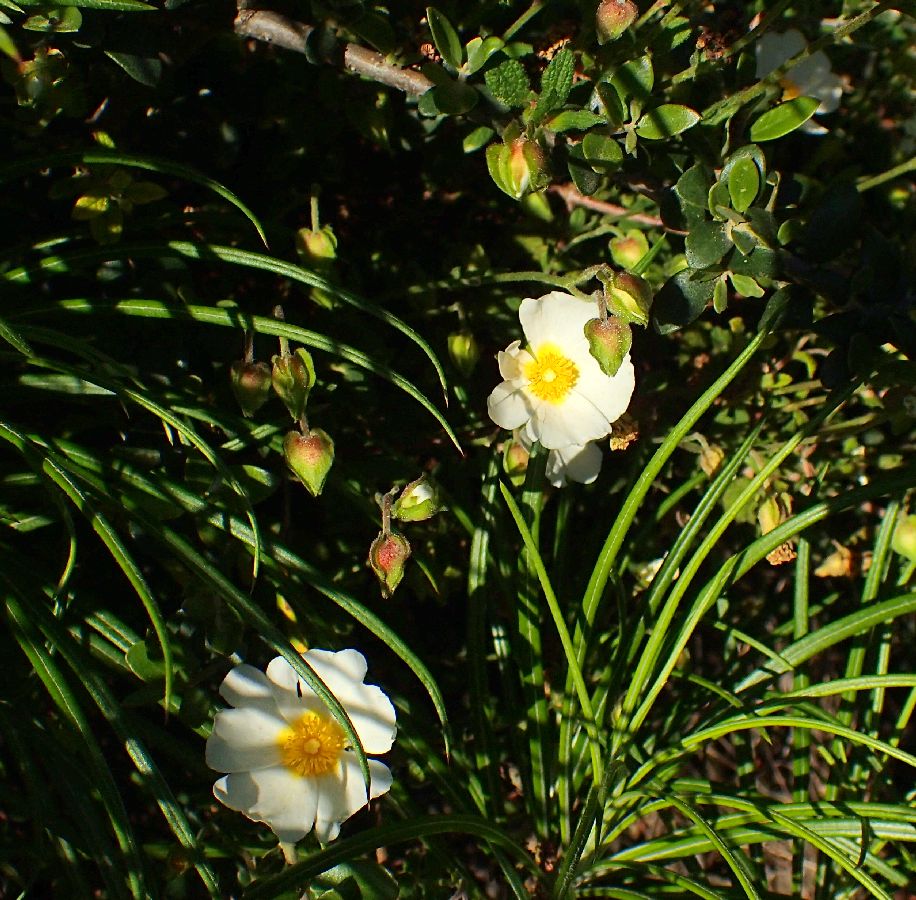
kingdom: Plantae
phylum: Tracheophyta
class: Magnoliopsida
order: Malvales
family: Cistaceae
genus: Cistus
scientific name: Cistus salviifolius
